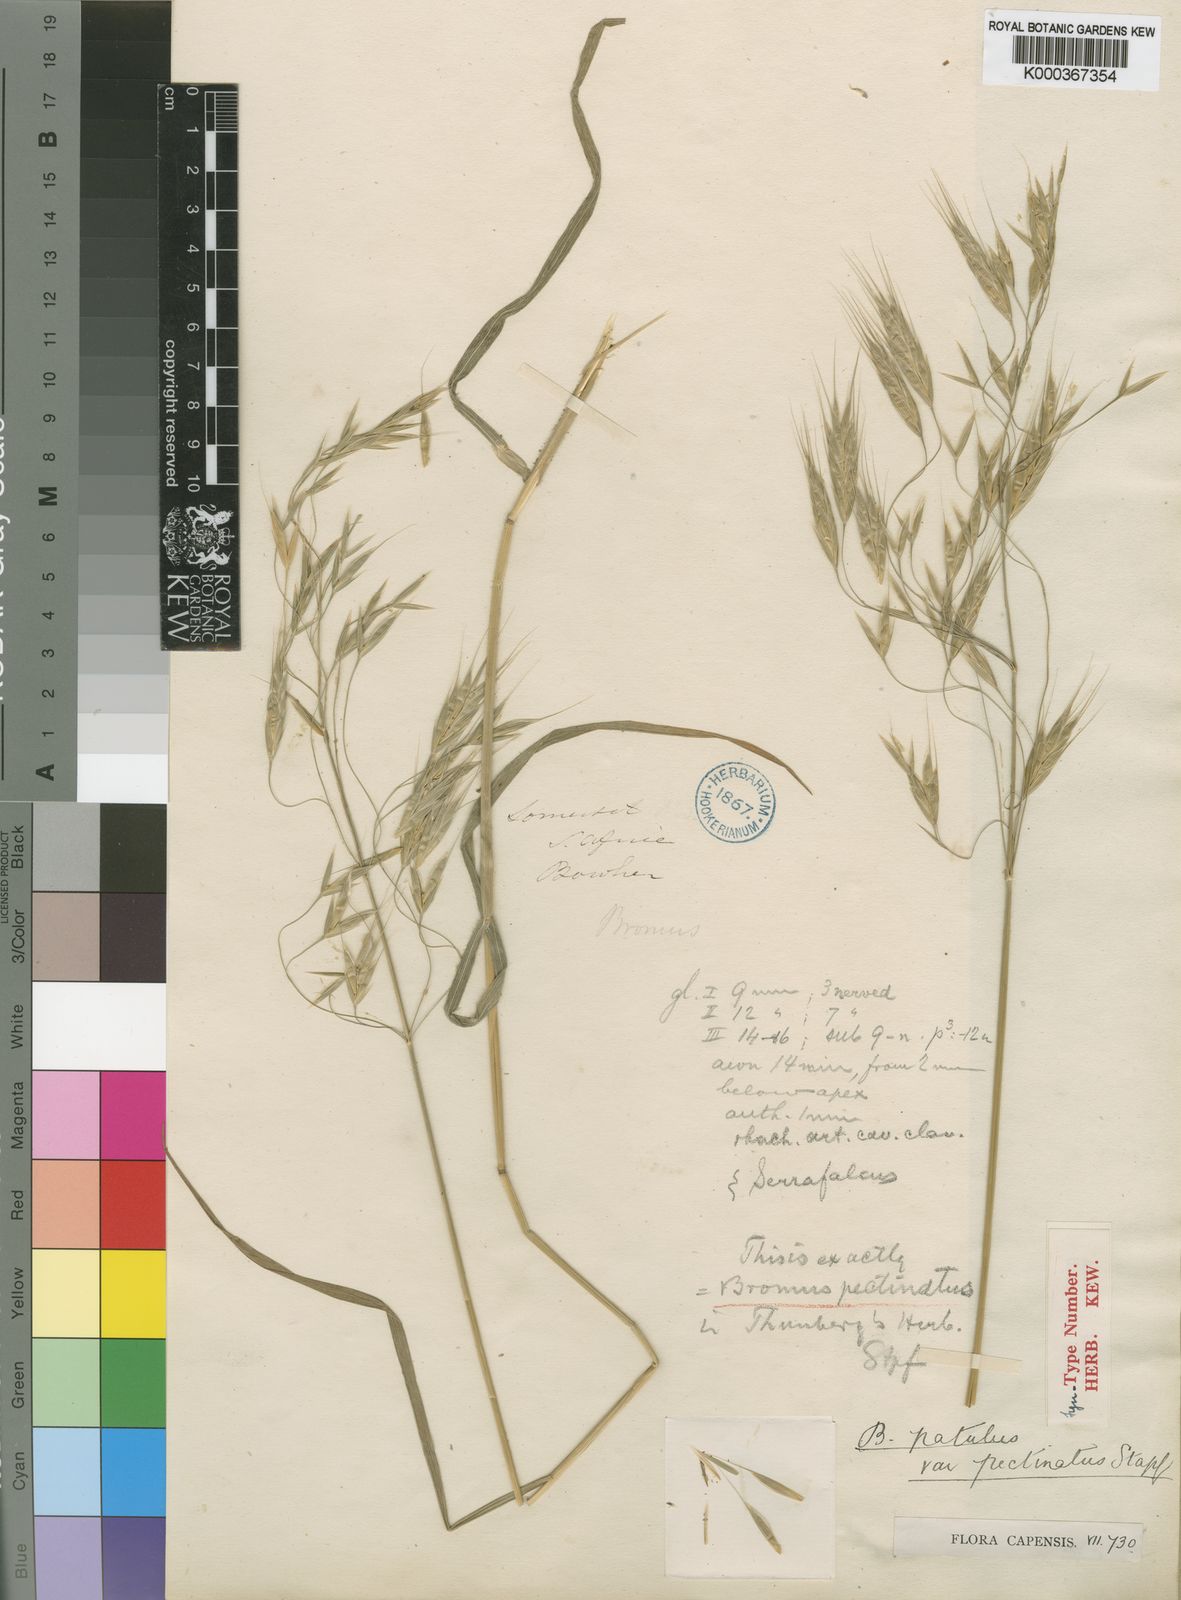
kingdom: Plantae
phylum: Tracheophyta
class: Liliopsida
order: Poales
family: Poaceae
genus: Bromus
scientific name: Bromus pectinatus
